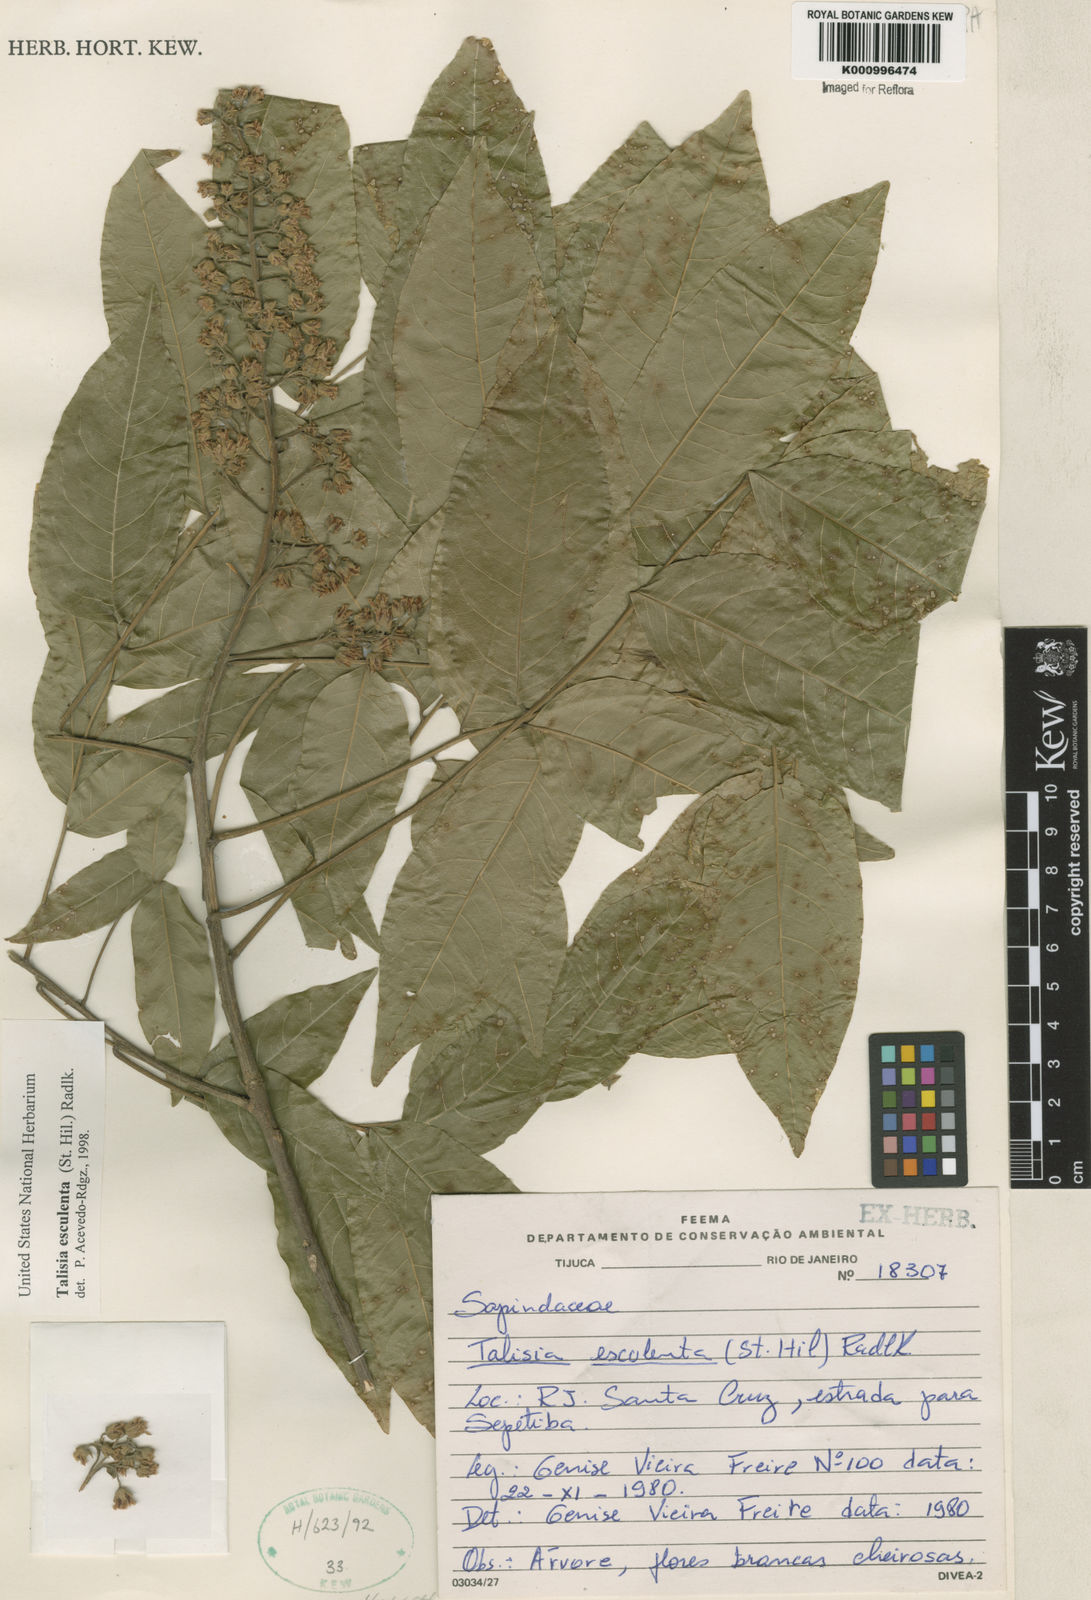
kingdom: Plantae
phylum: Tracheophyta
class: Magnoliopsida
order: Sapindales
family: Sapindaceae
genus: Talisia
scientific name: Talisia
